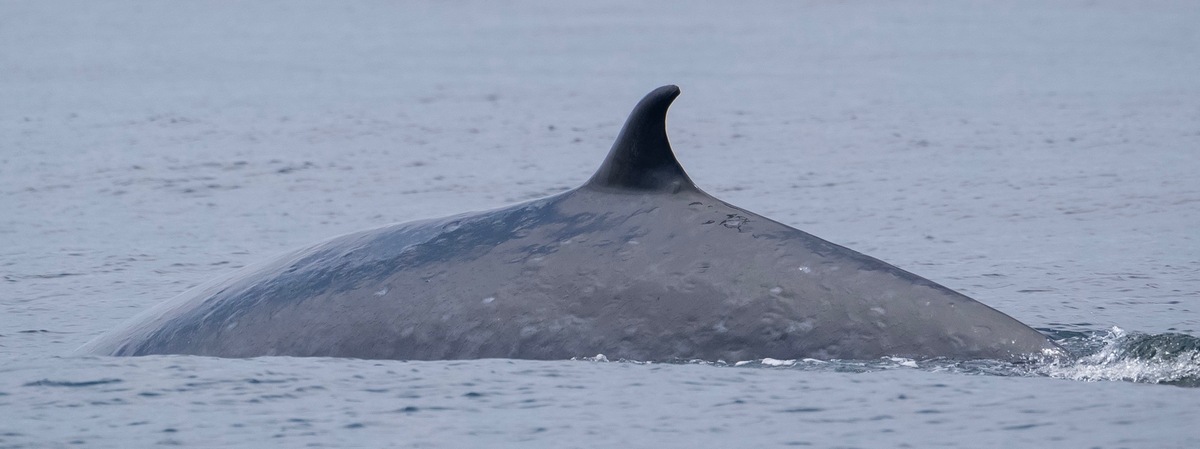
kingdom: Animalia
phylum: Chordata
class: Mammalia
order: Cetacea
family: Balaenopteridae
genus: Balaenoptera
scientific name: Balaenoptera edeni
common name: Bryde's whale
